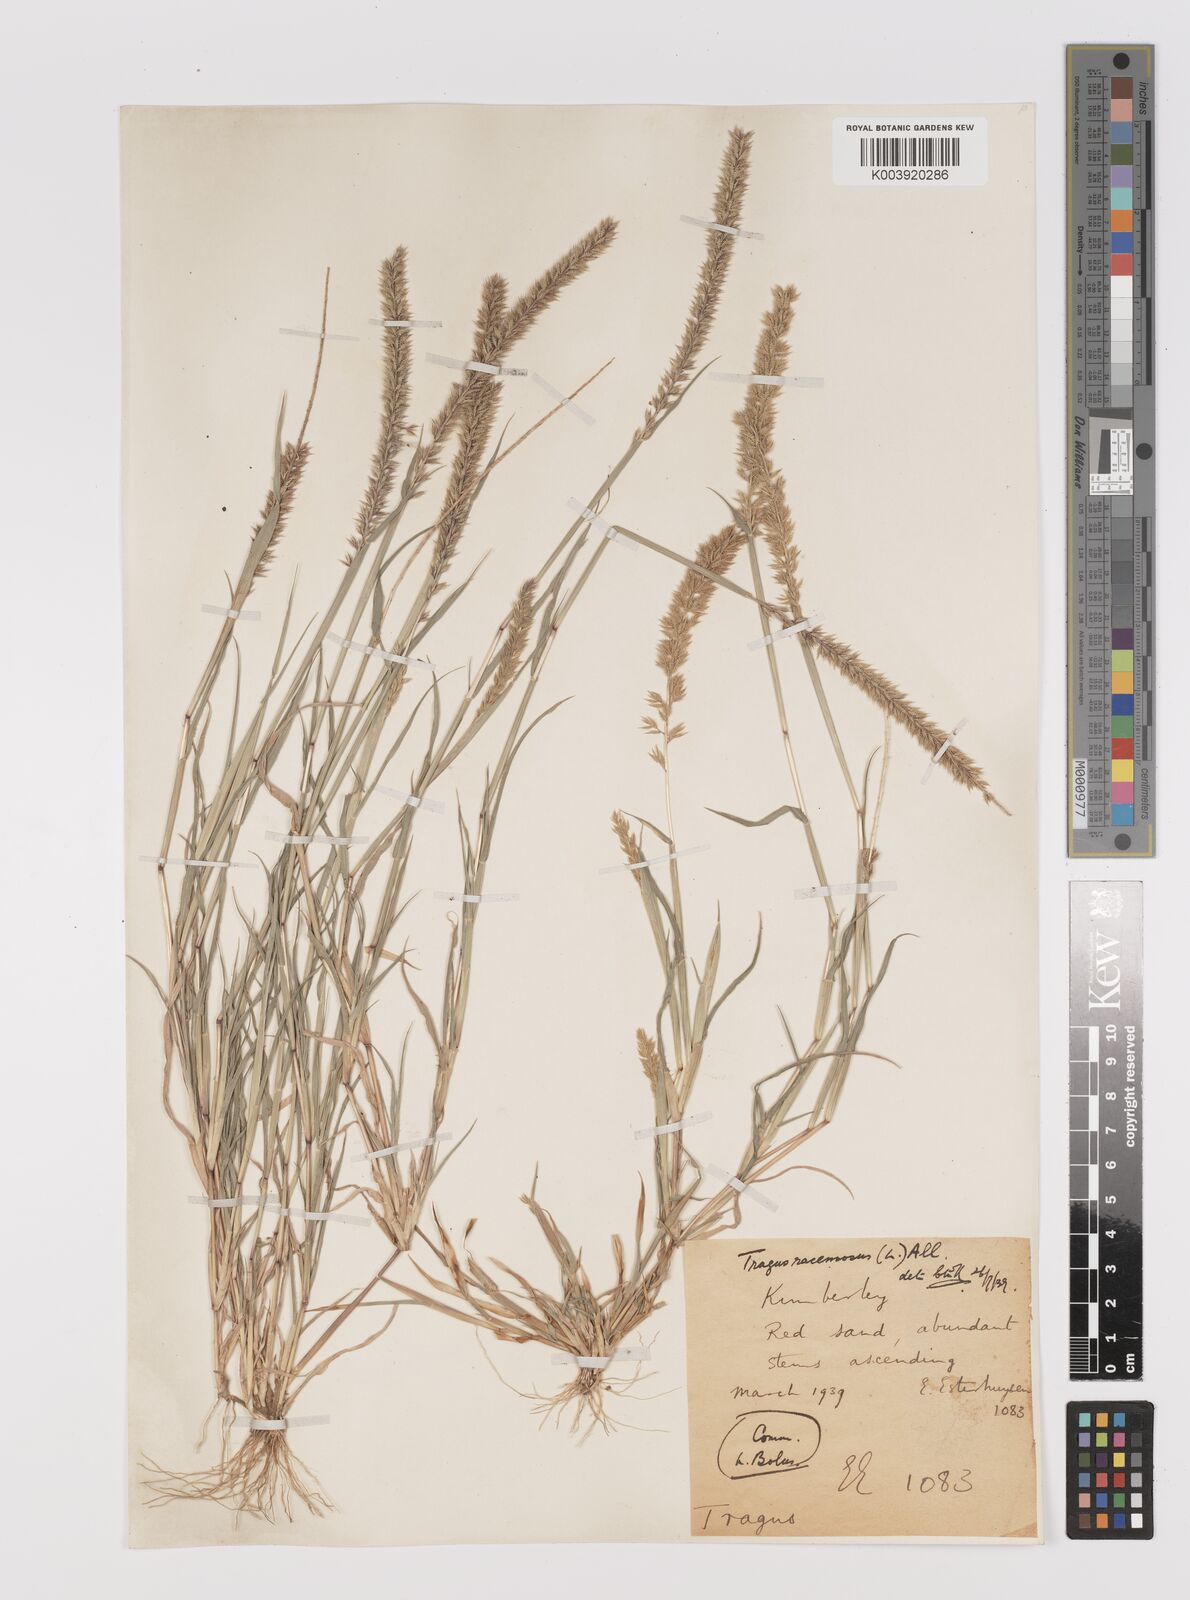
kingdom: Plantae
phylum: Tracheophyta
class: Liliopsida
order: Poales
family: Poaceae
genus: Tragus
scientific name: Tragus racemosus
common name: European bur-grass
